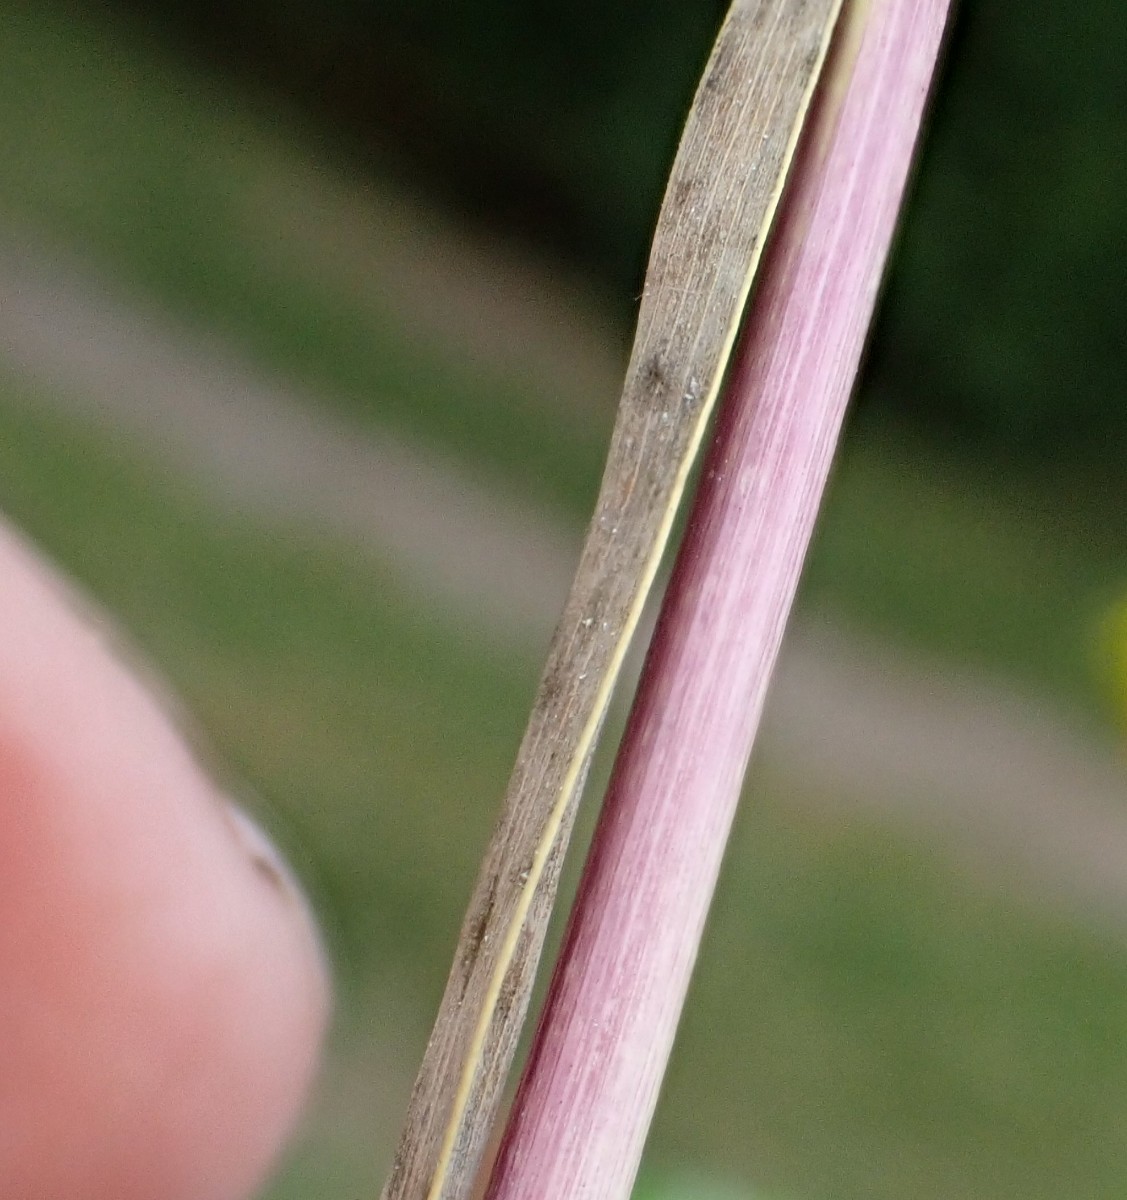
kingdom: Fungi
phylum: Ascomycota
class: Sordariomycetes
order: Hypocreales
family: Clavicipitaceae
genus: Epichloe
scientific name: Epichloe
